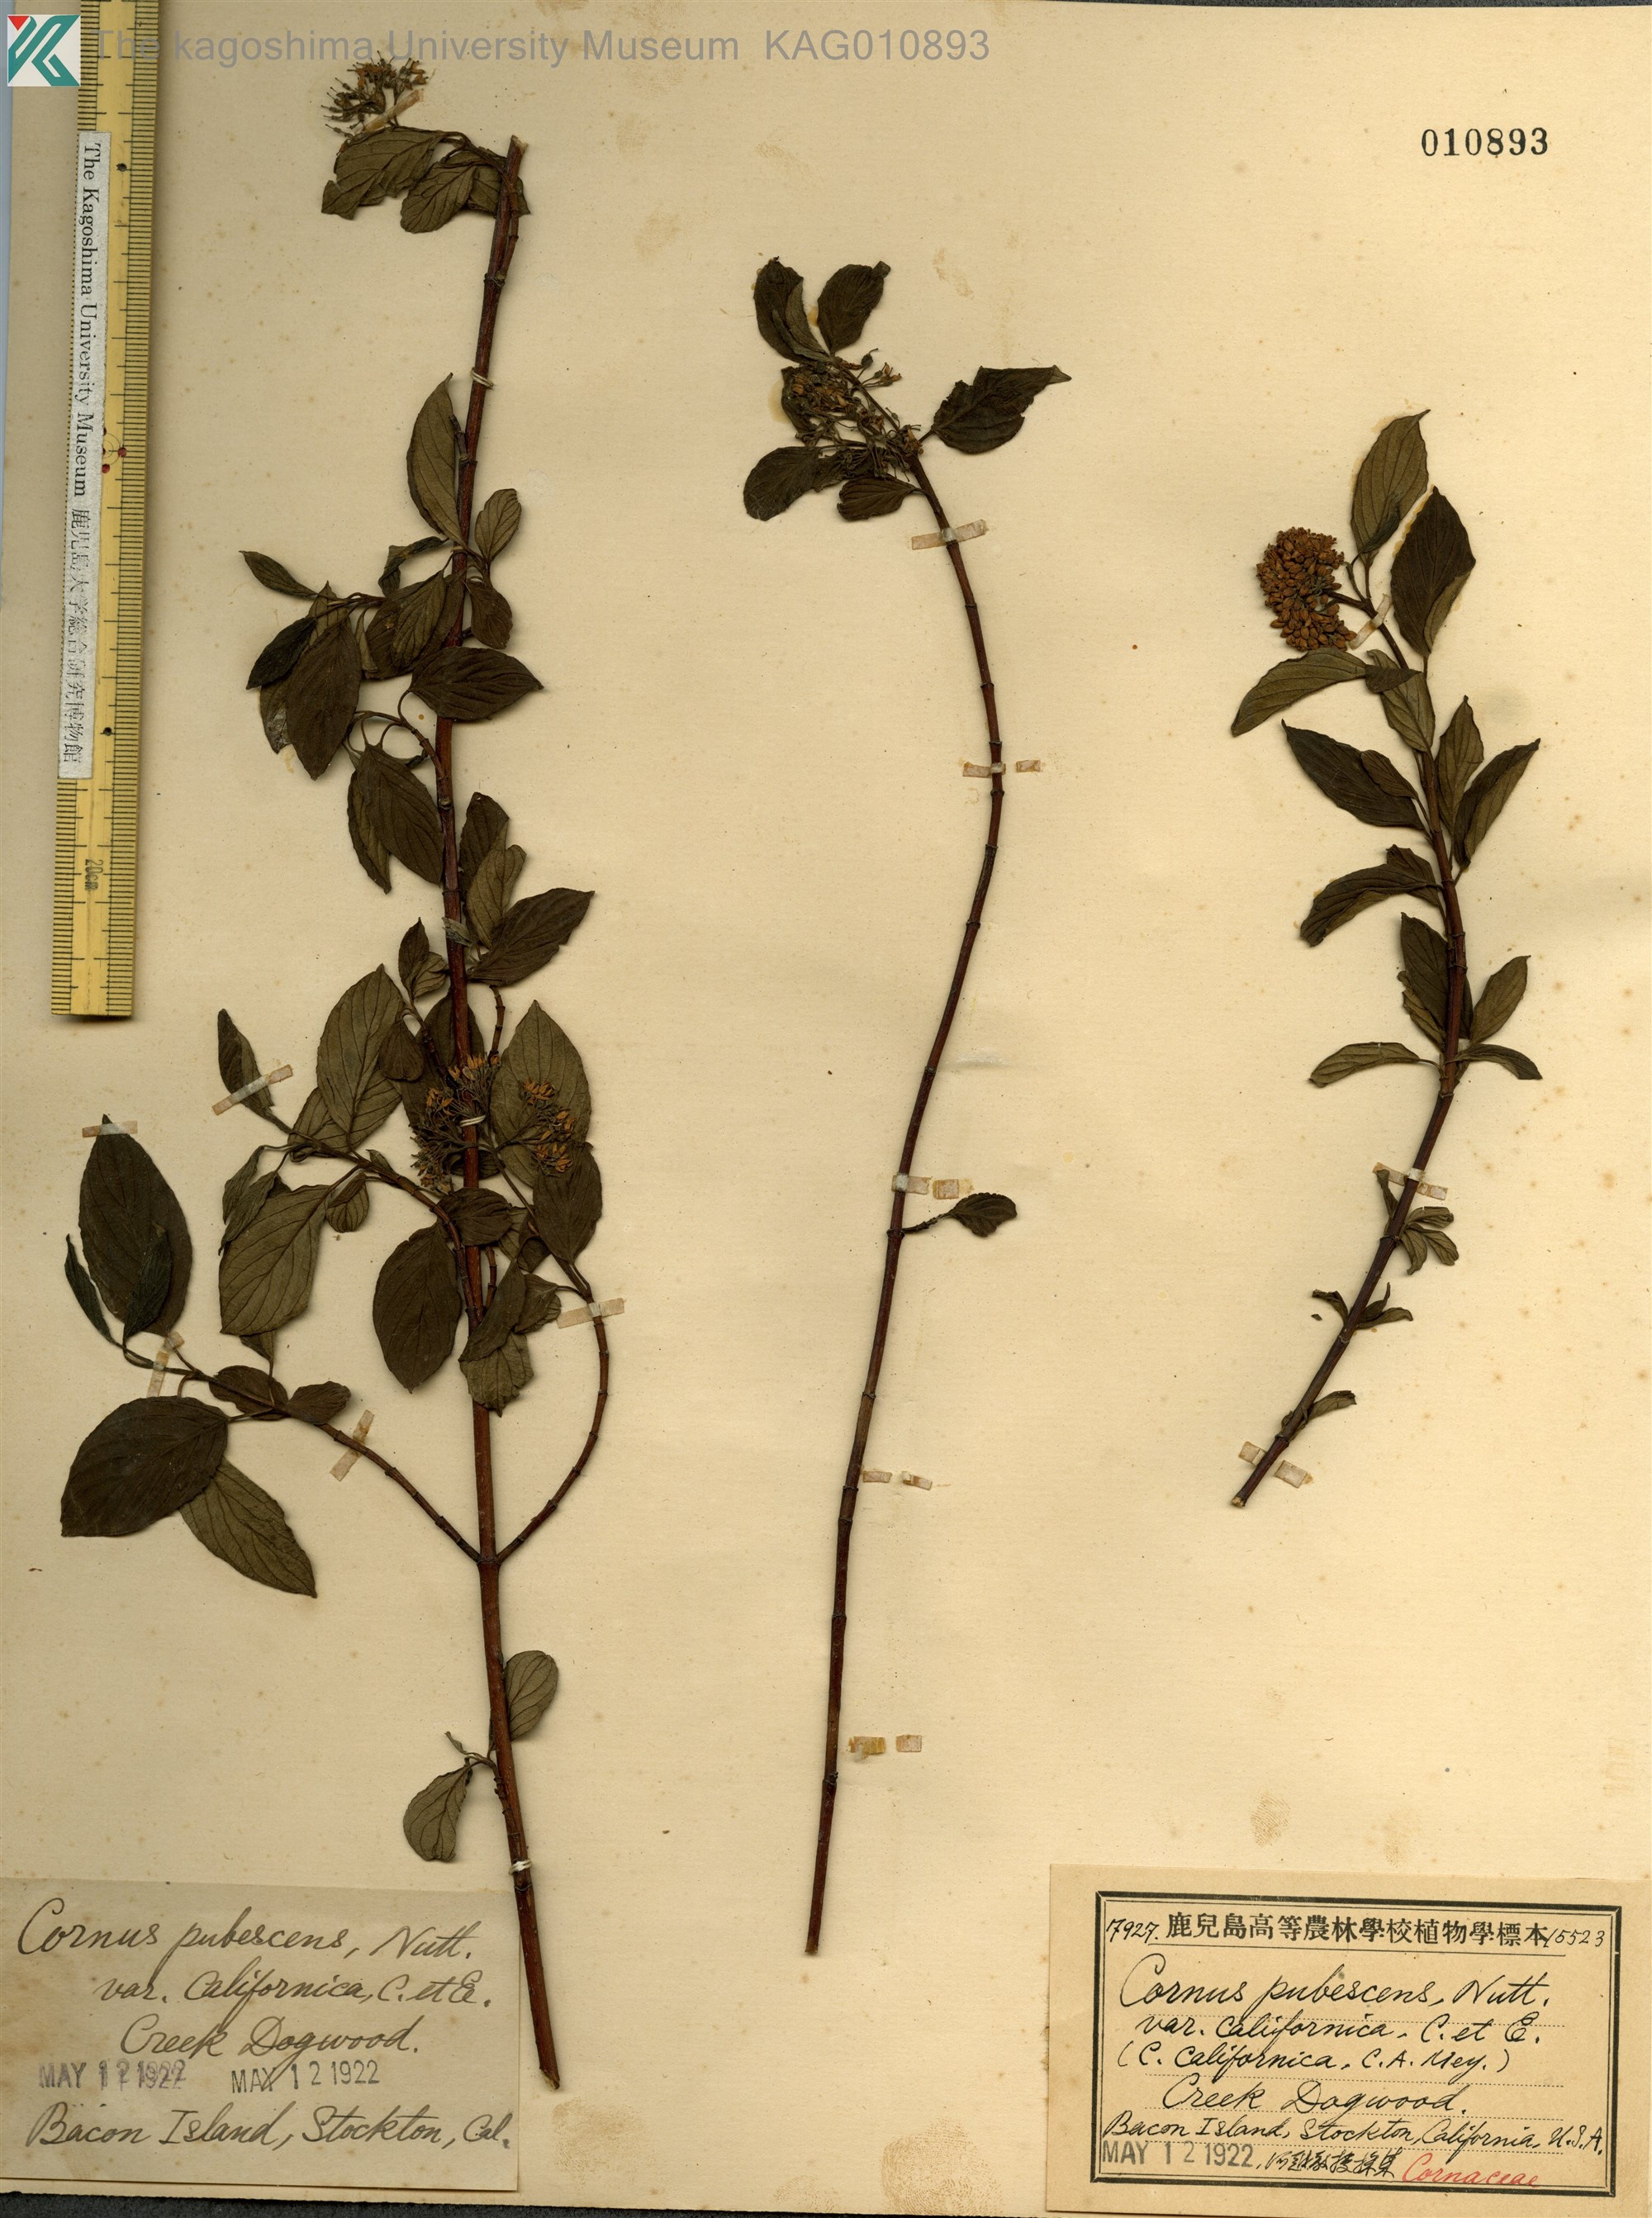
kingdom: Plantae
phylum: Tracheophyta
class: Magnoliopsida
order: Cornales
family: Cornaceae
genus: Cornus
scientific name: Cornus torreyi
